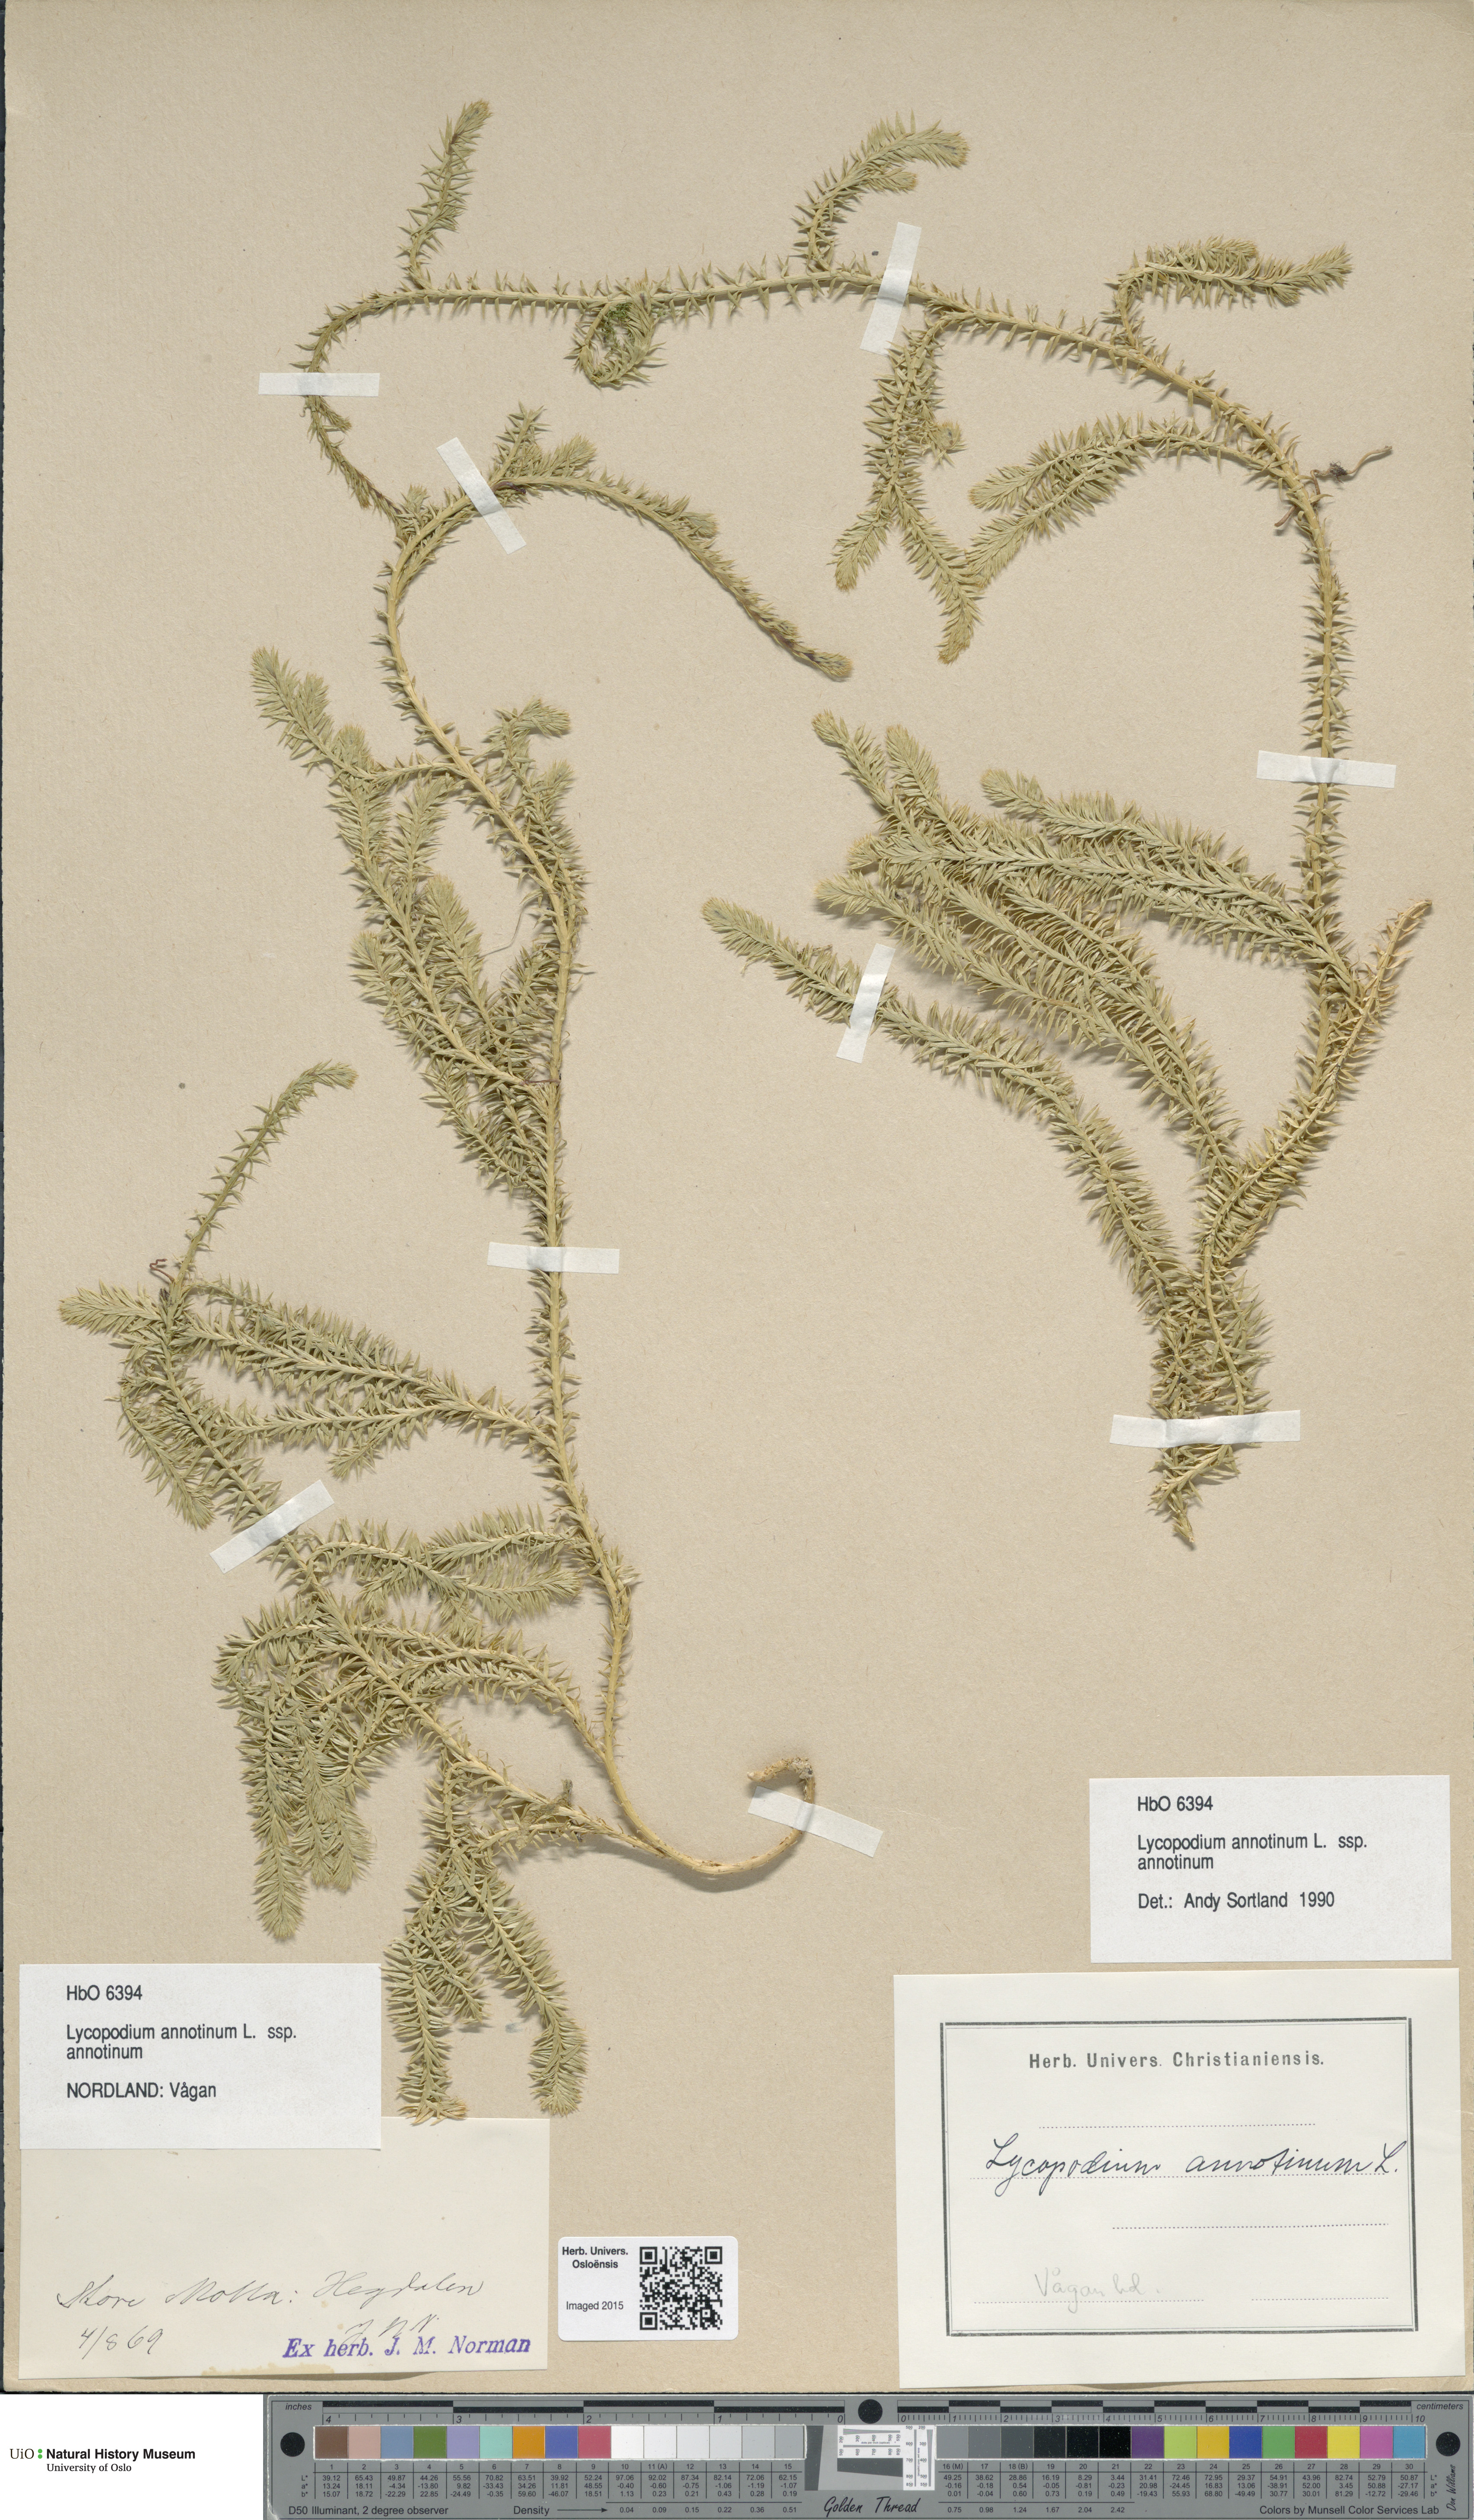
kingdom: Plantae
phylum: Tracheophyta
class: Lycopodiopsida
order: Lycopodiales
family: Lycopodiaceae
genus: Spinulum
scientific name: Spinulum annotinum
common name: Interrupted club-moss
